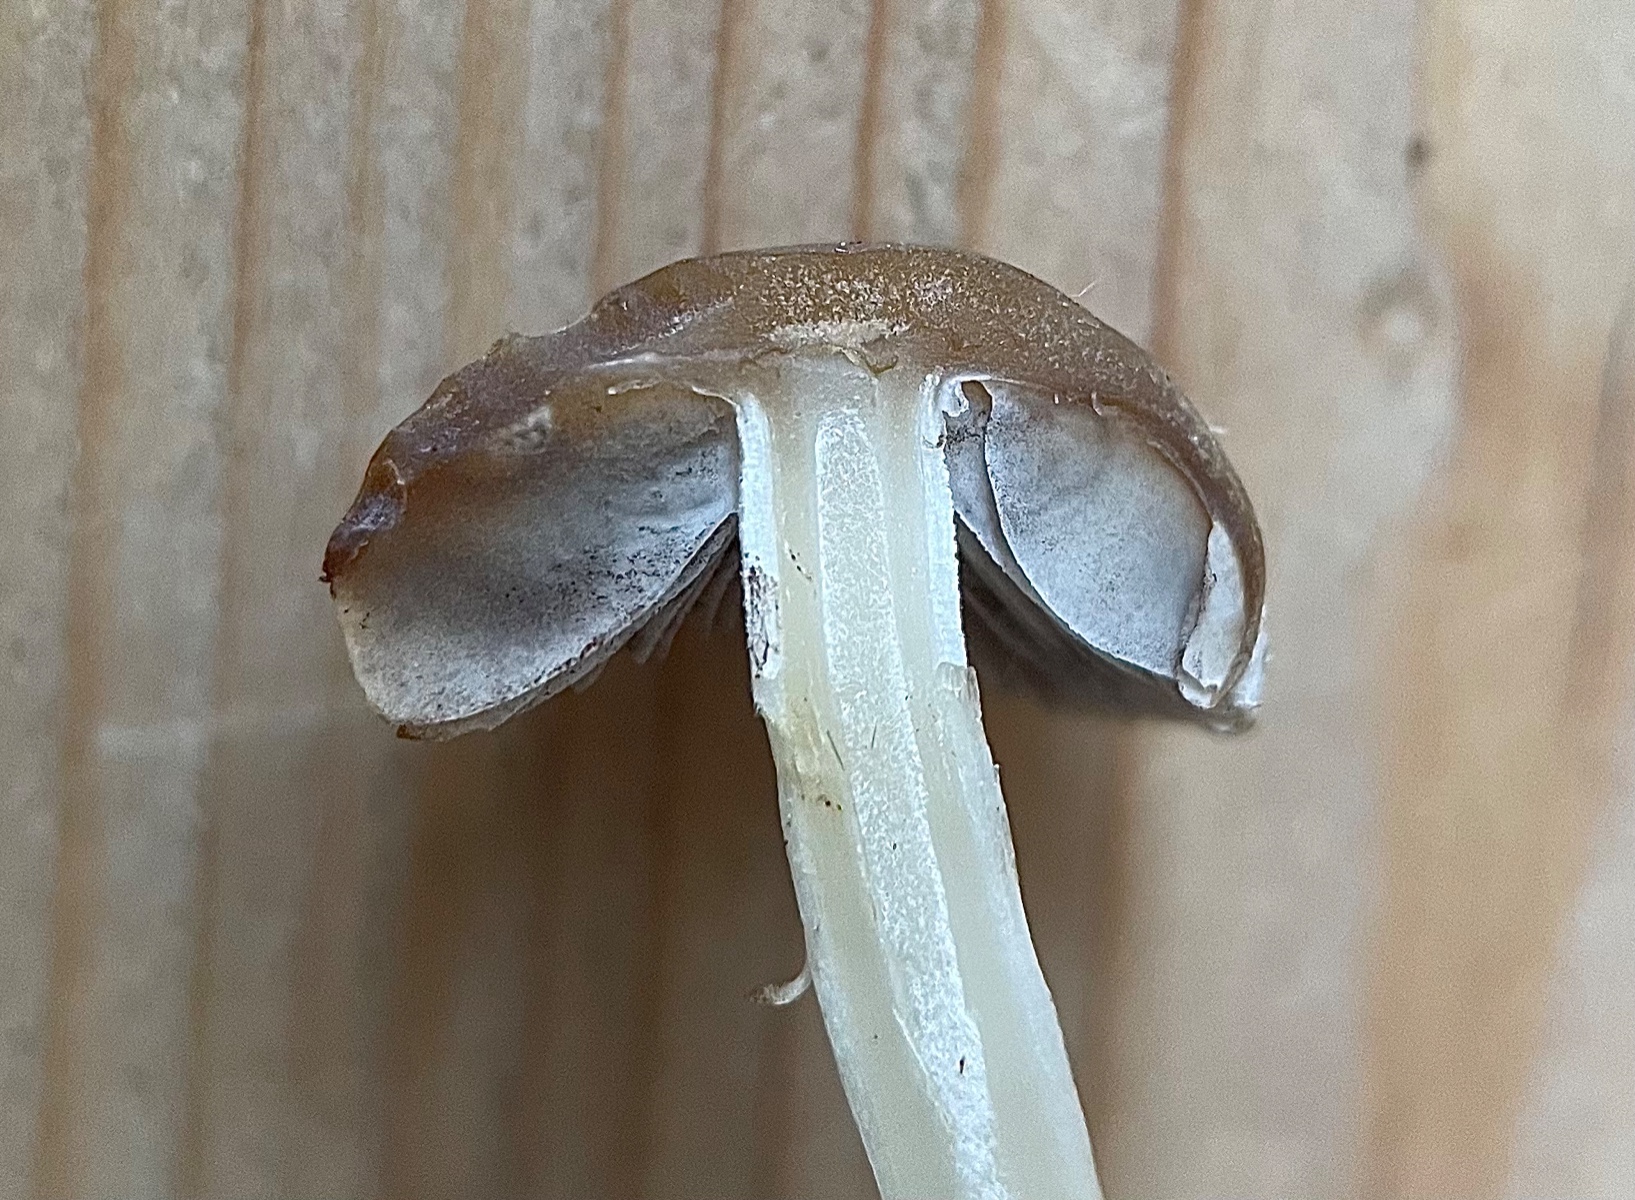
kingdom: Fungi
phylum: Basidiomycota
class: Agaricomycetes
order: Agaricales
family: Psathyrellaceae
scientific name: Psathyrellaceae
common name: mørkhatfamilien
